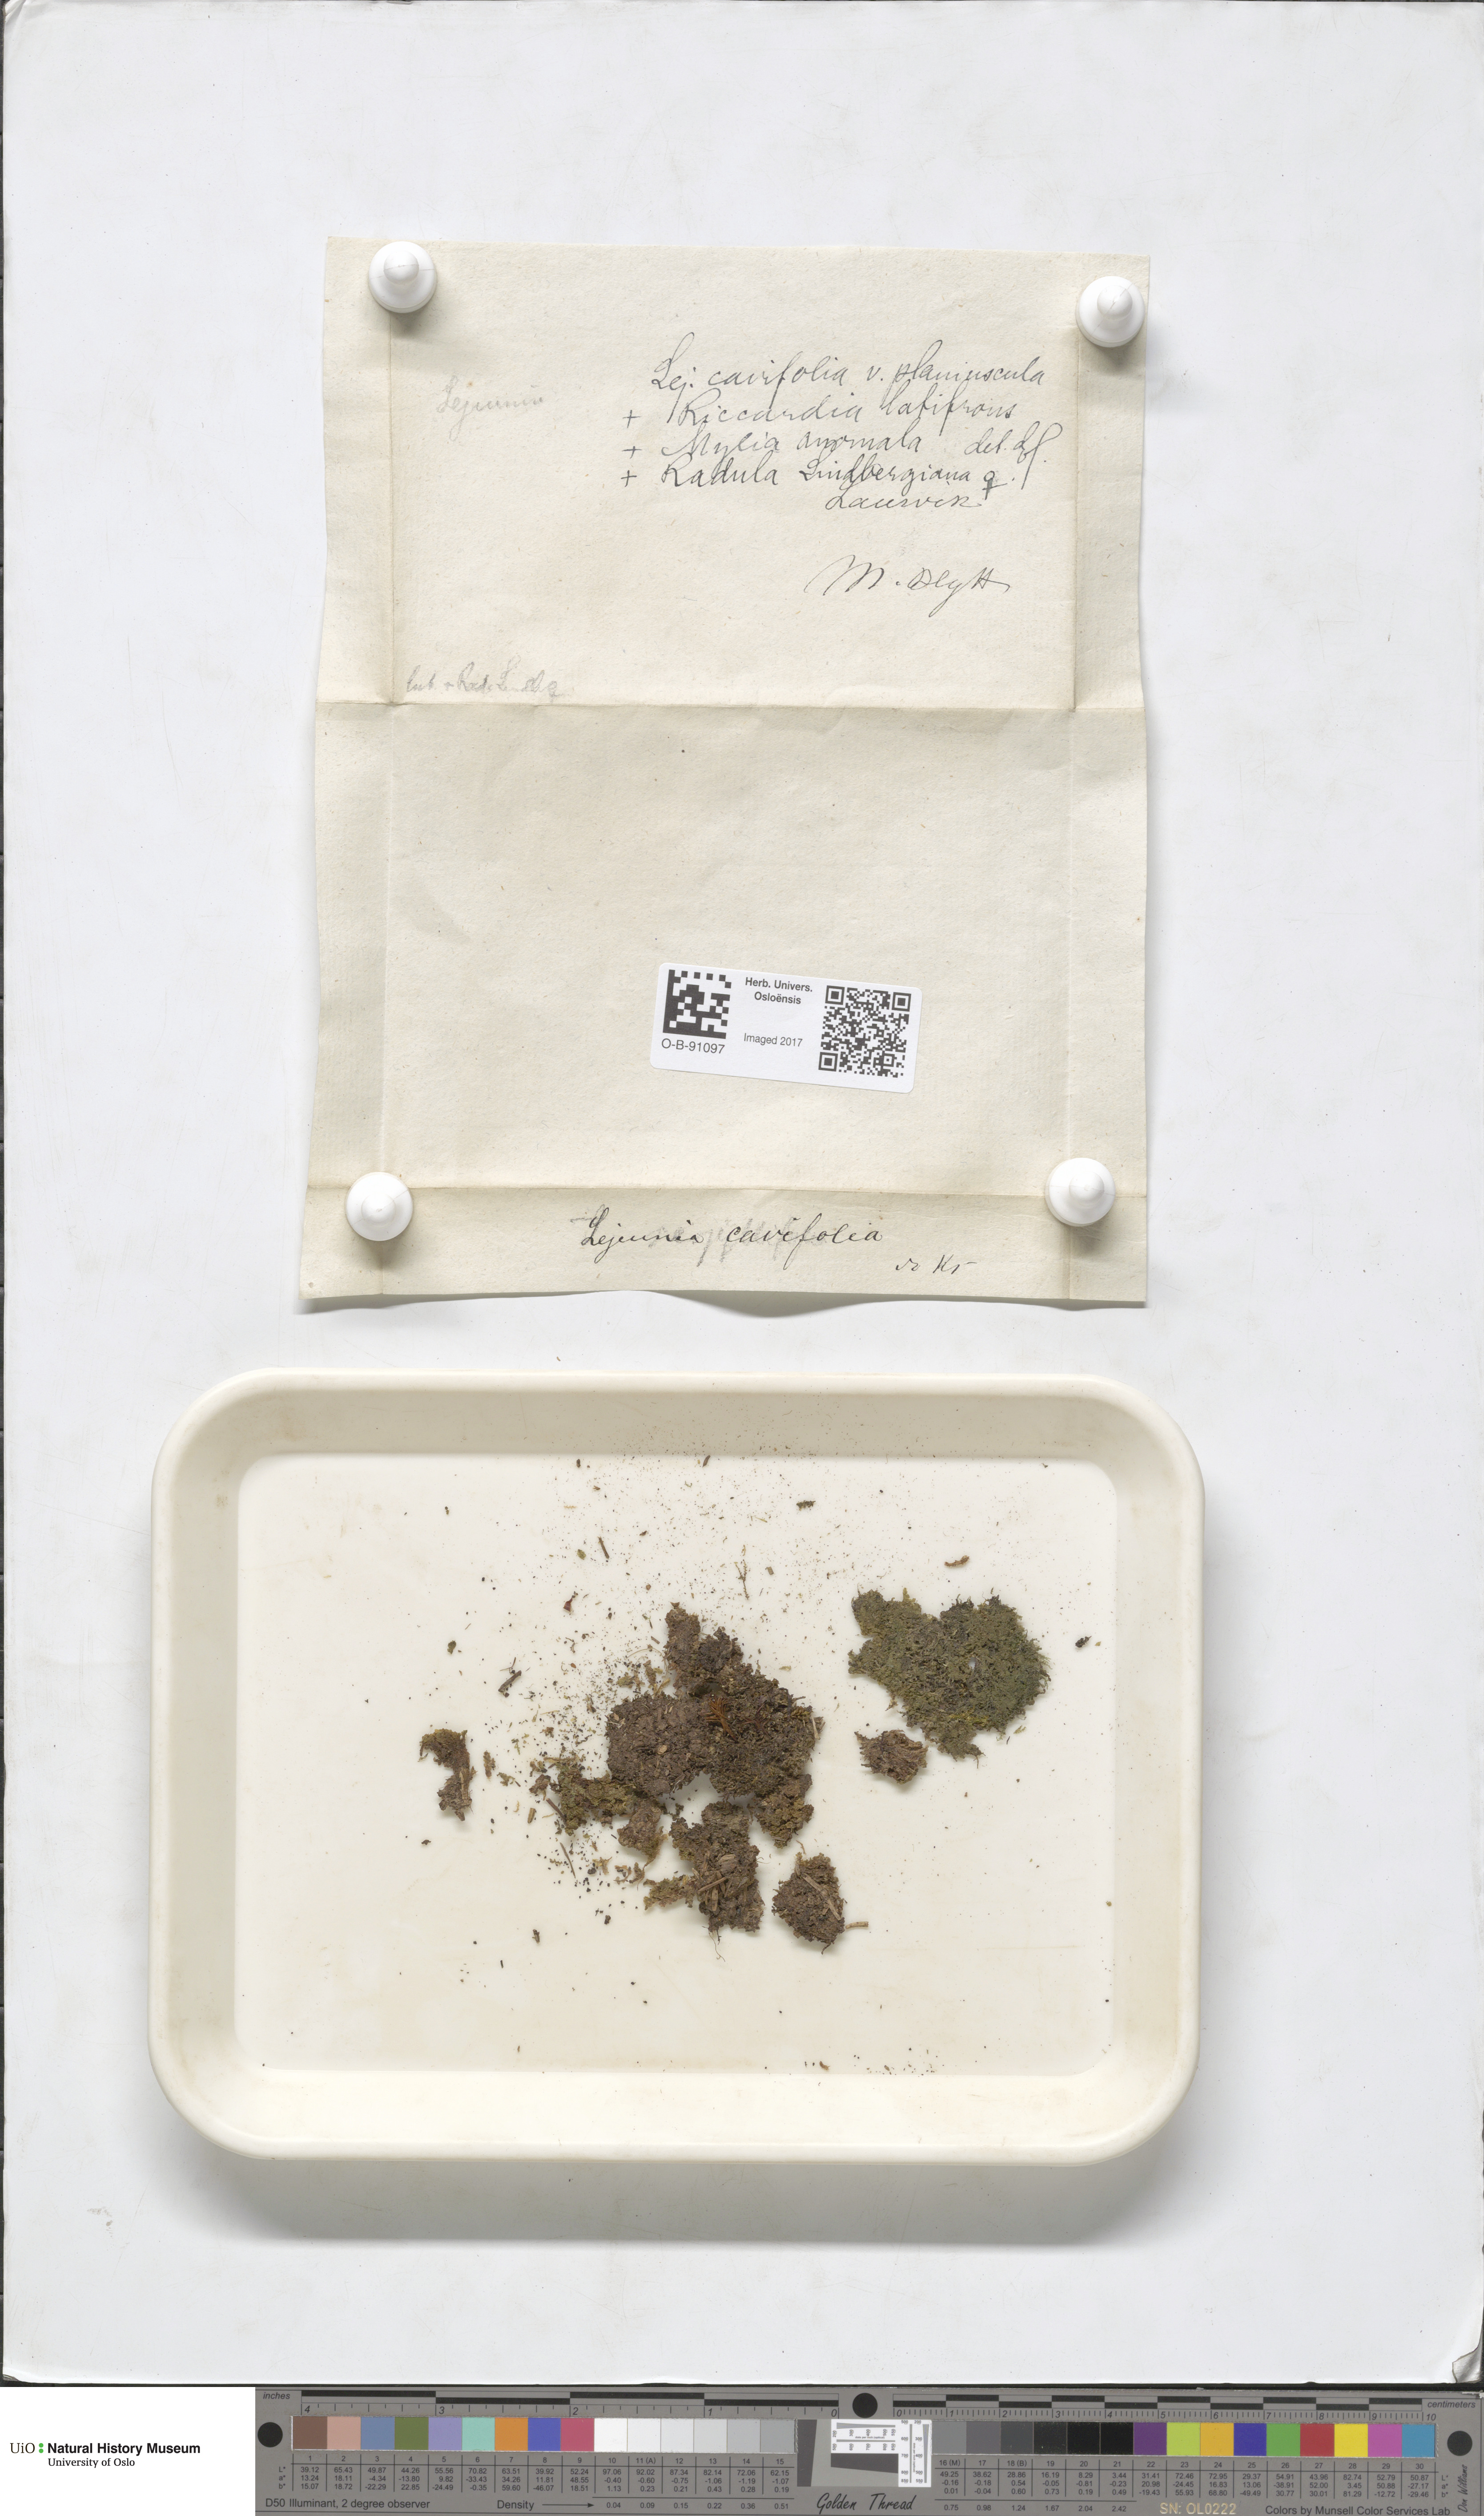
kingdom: Plantae
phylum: Marchantiophyta
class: Jungermanniopsida
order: Porellales
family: Lejeuneaceae
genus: Lejeunea
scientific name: Lejeunea cavifolia
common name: Least pouncewort
